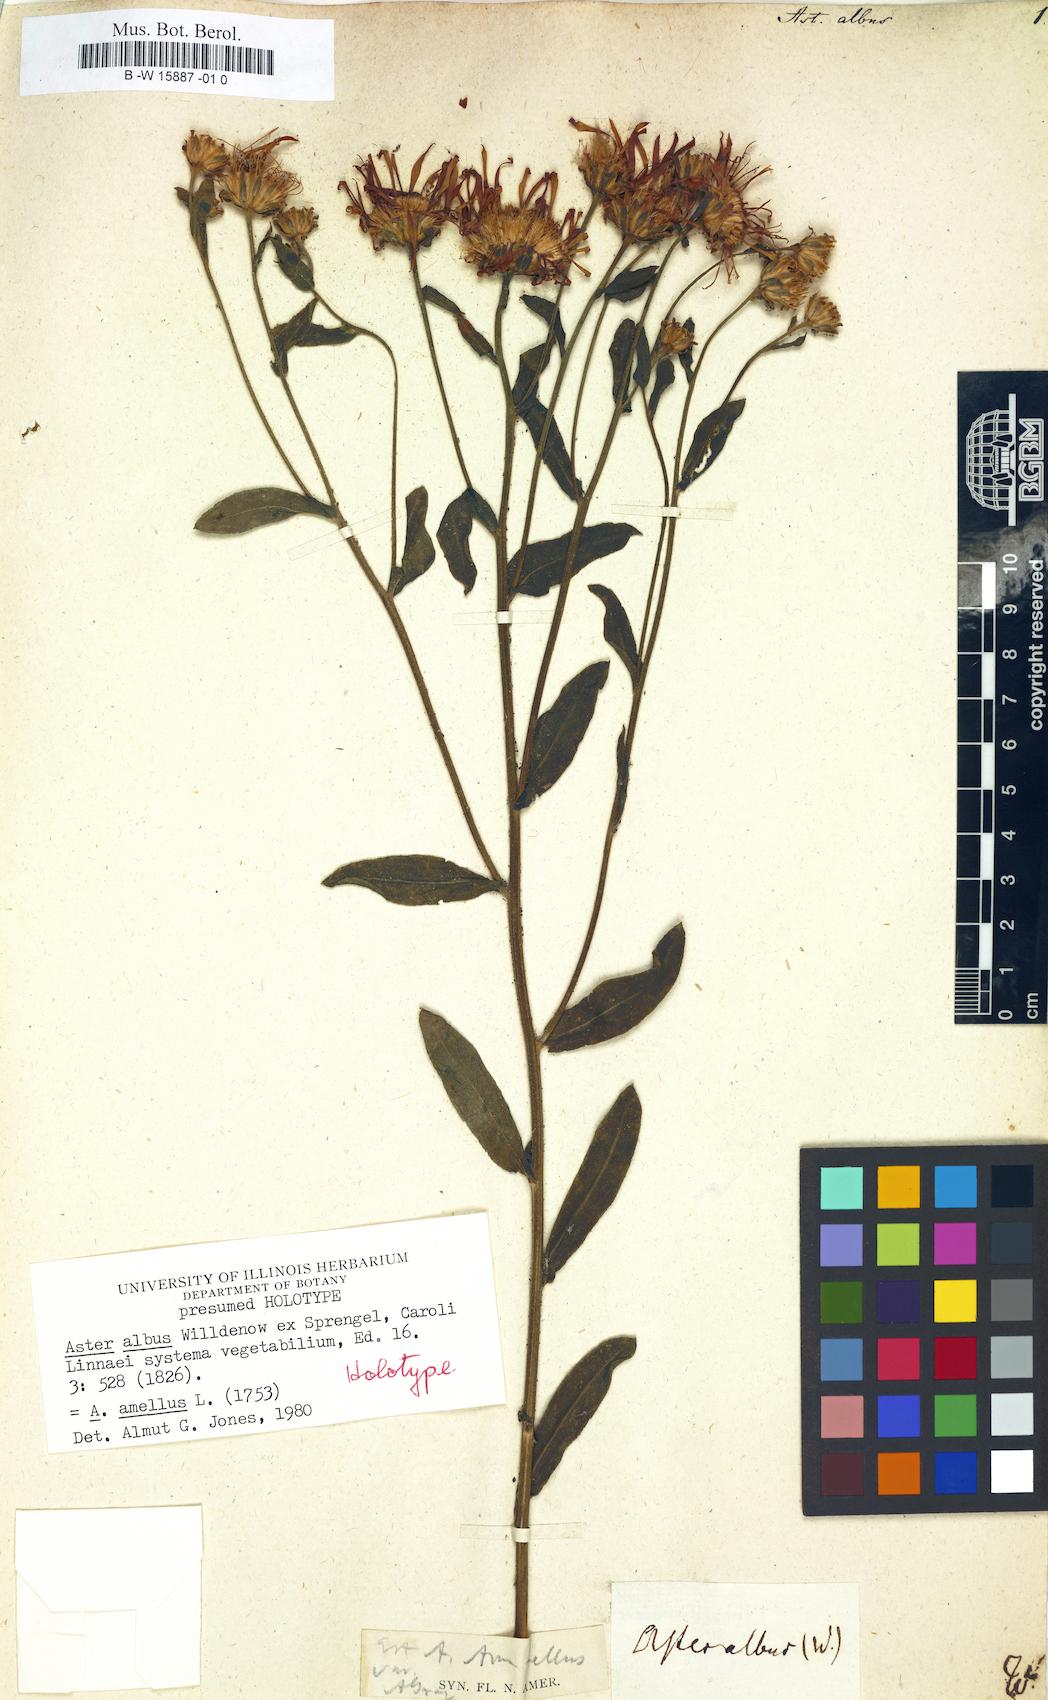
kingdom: Plantae
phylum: Tracheophyta
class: Magnoliopsida
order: Asterales
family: Asteraceae
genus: Aster
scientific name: Aster amellus
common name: European michaelmas daisy
